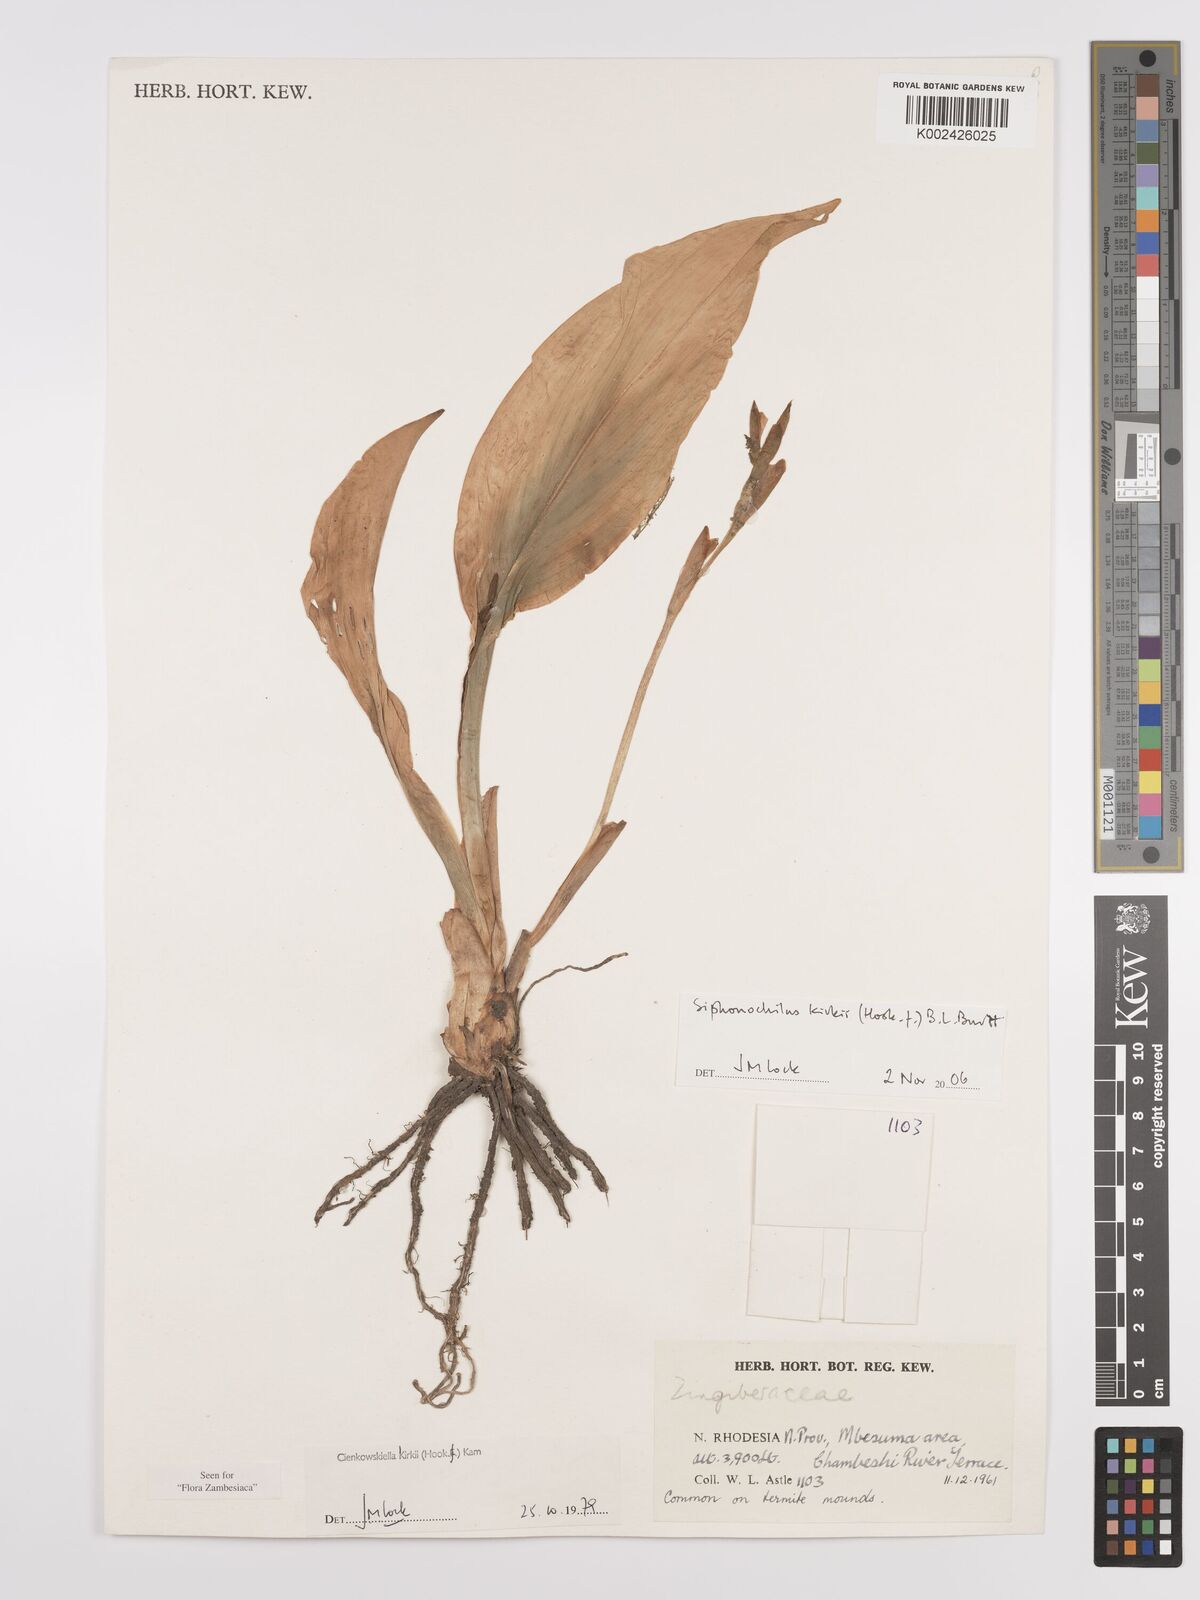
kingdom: Plantae
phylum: Tracheophyta
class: Liliopsida
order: Zingiberales
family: Zingiberaceae
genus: Siphonochilus
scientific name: Siphonochilus kirkii
